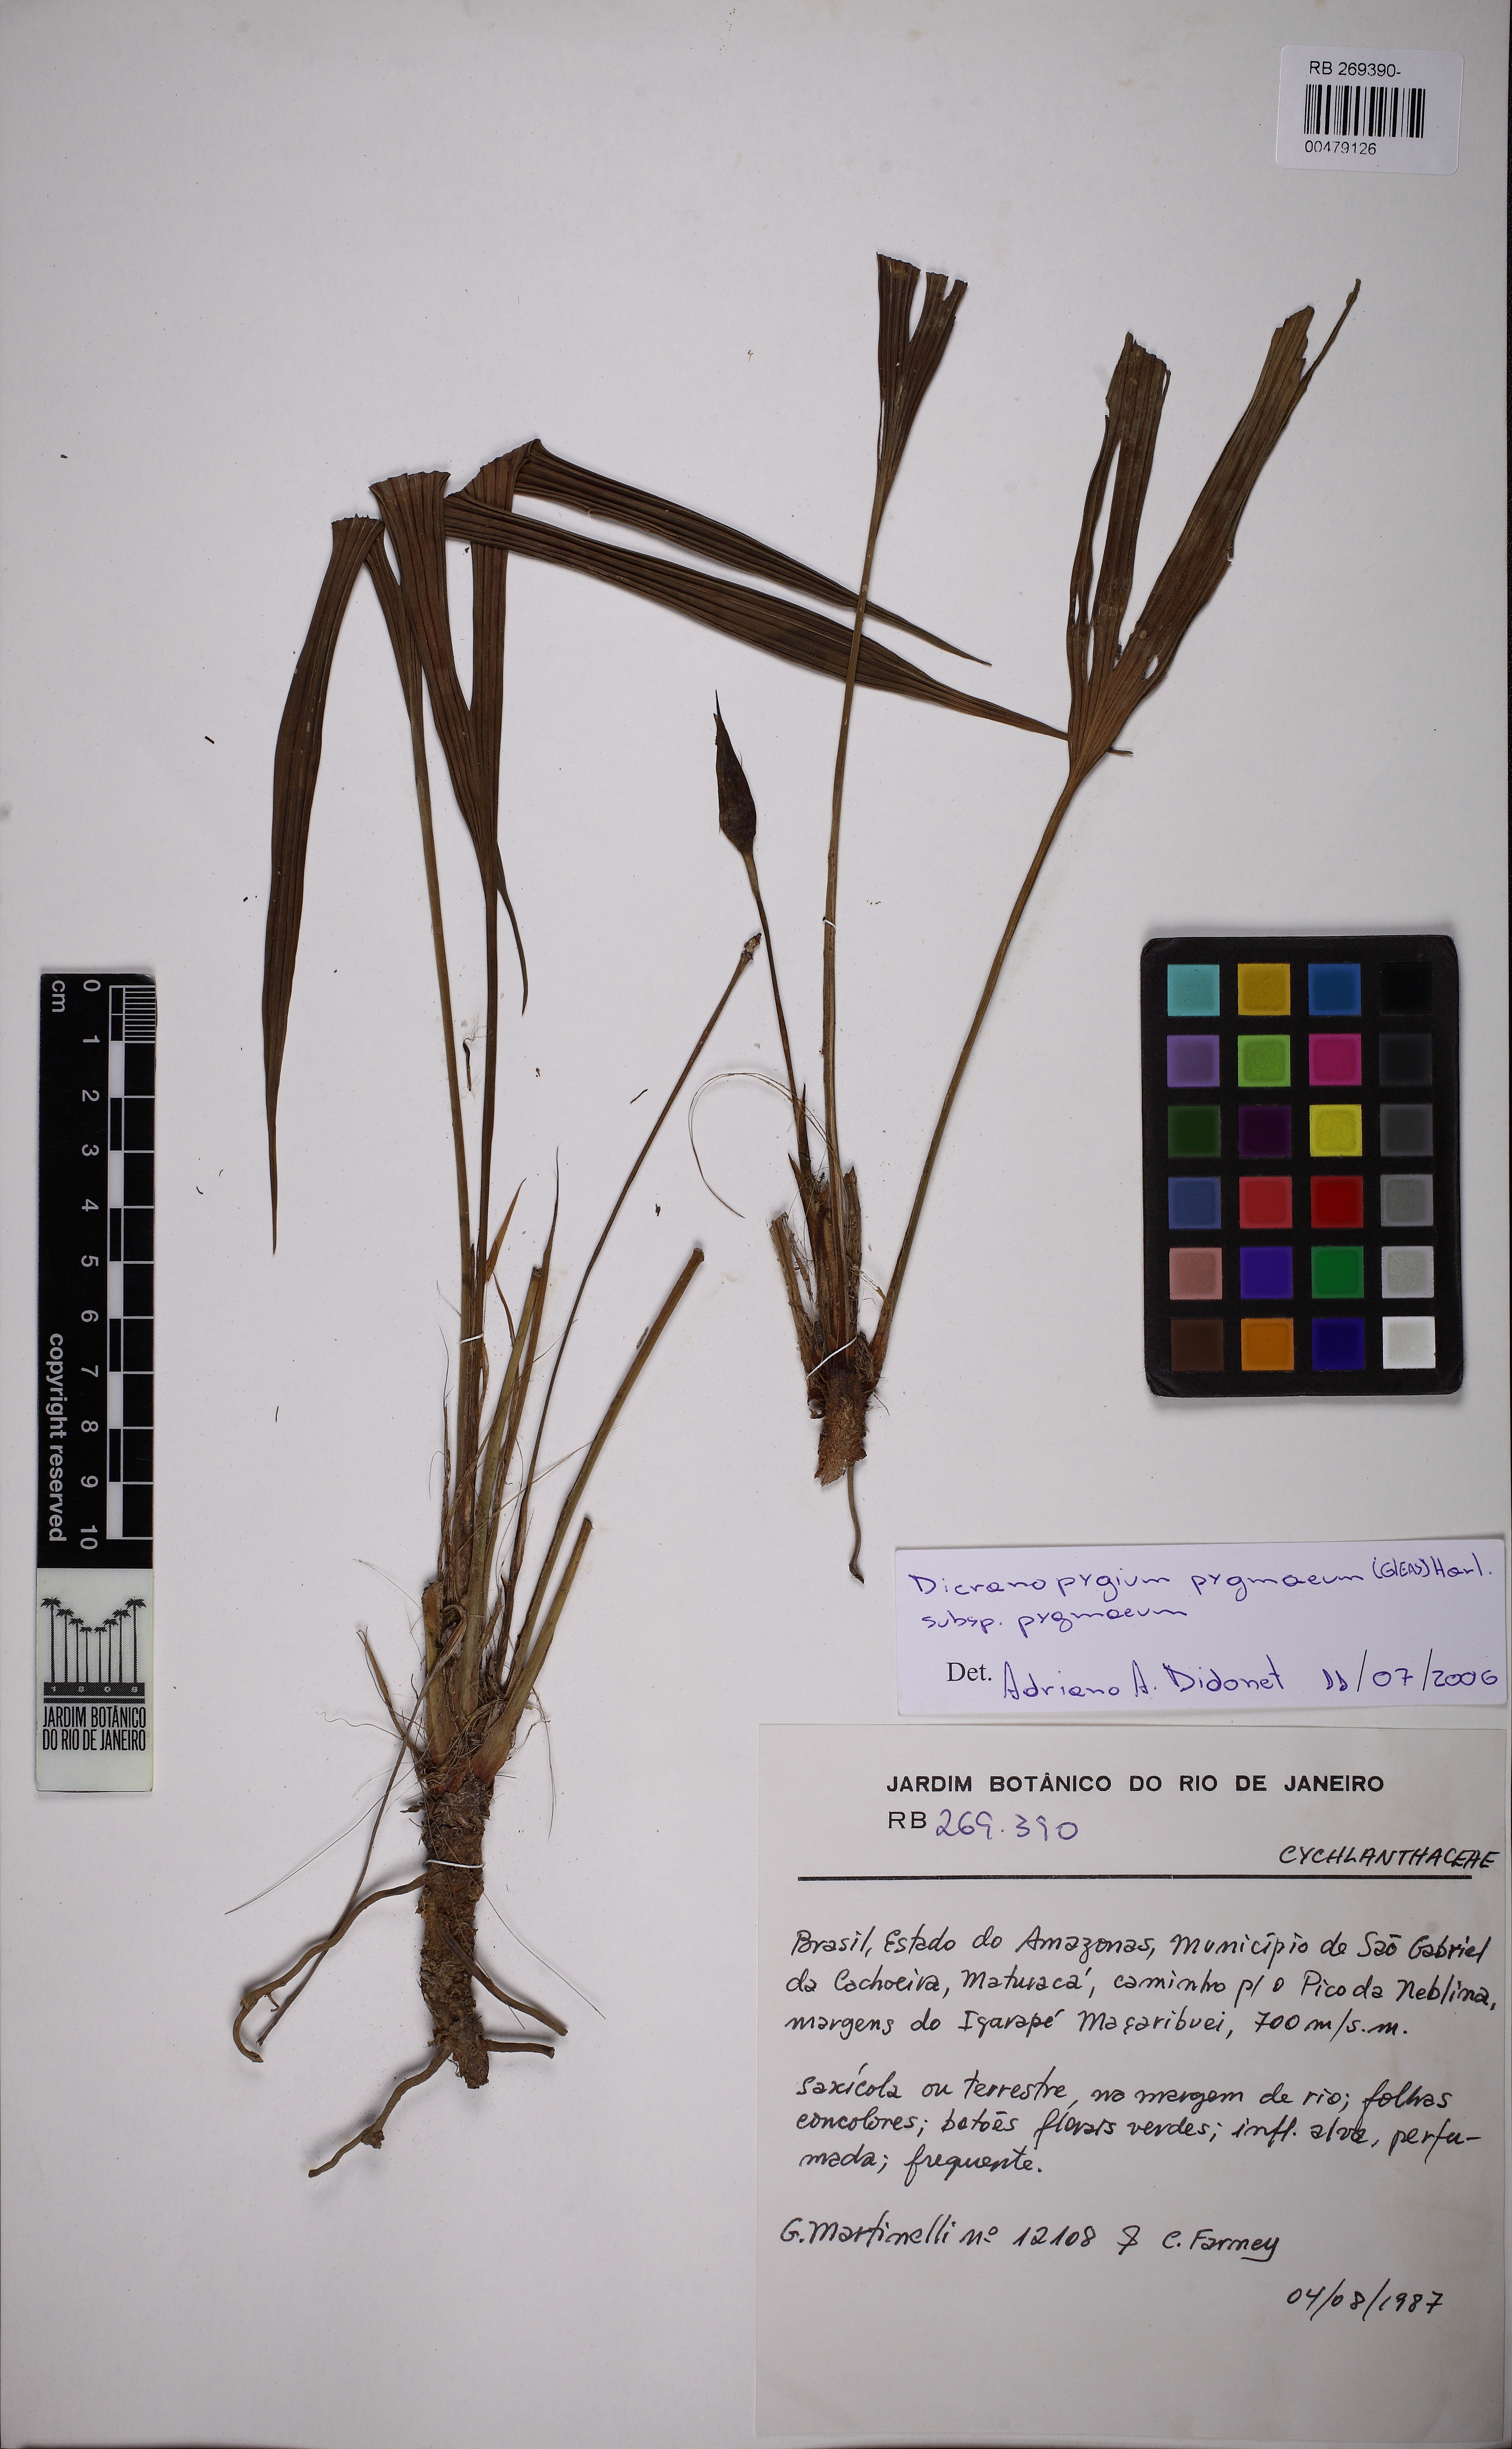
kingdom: Plantae
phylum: Tracheophyta
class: Liliopsida
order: Pandanales
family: Cyclanthaceae
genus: Dicranopygium
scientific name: Dicranopygium imeriense
